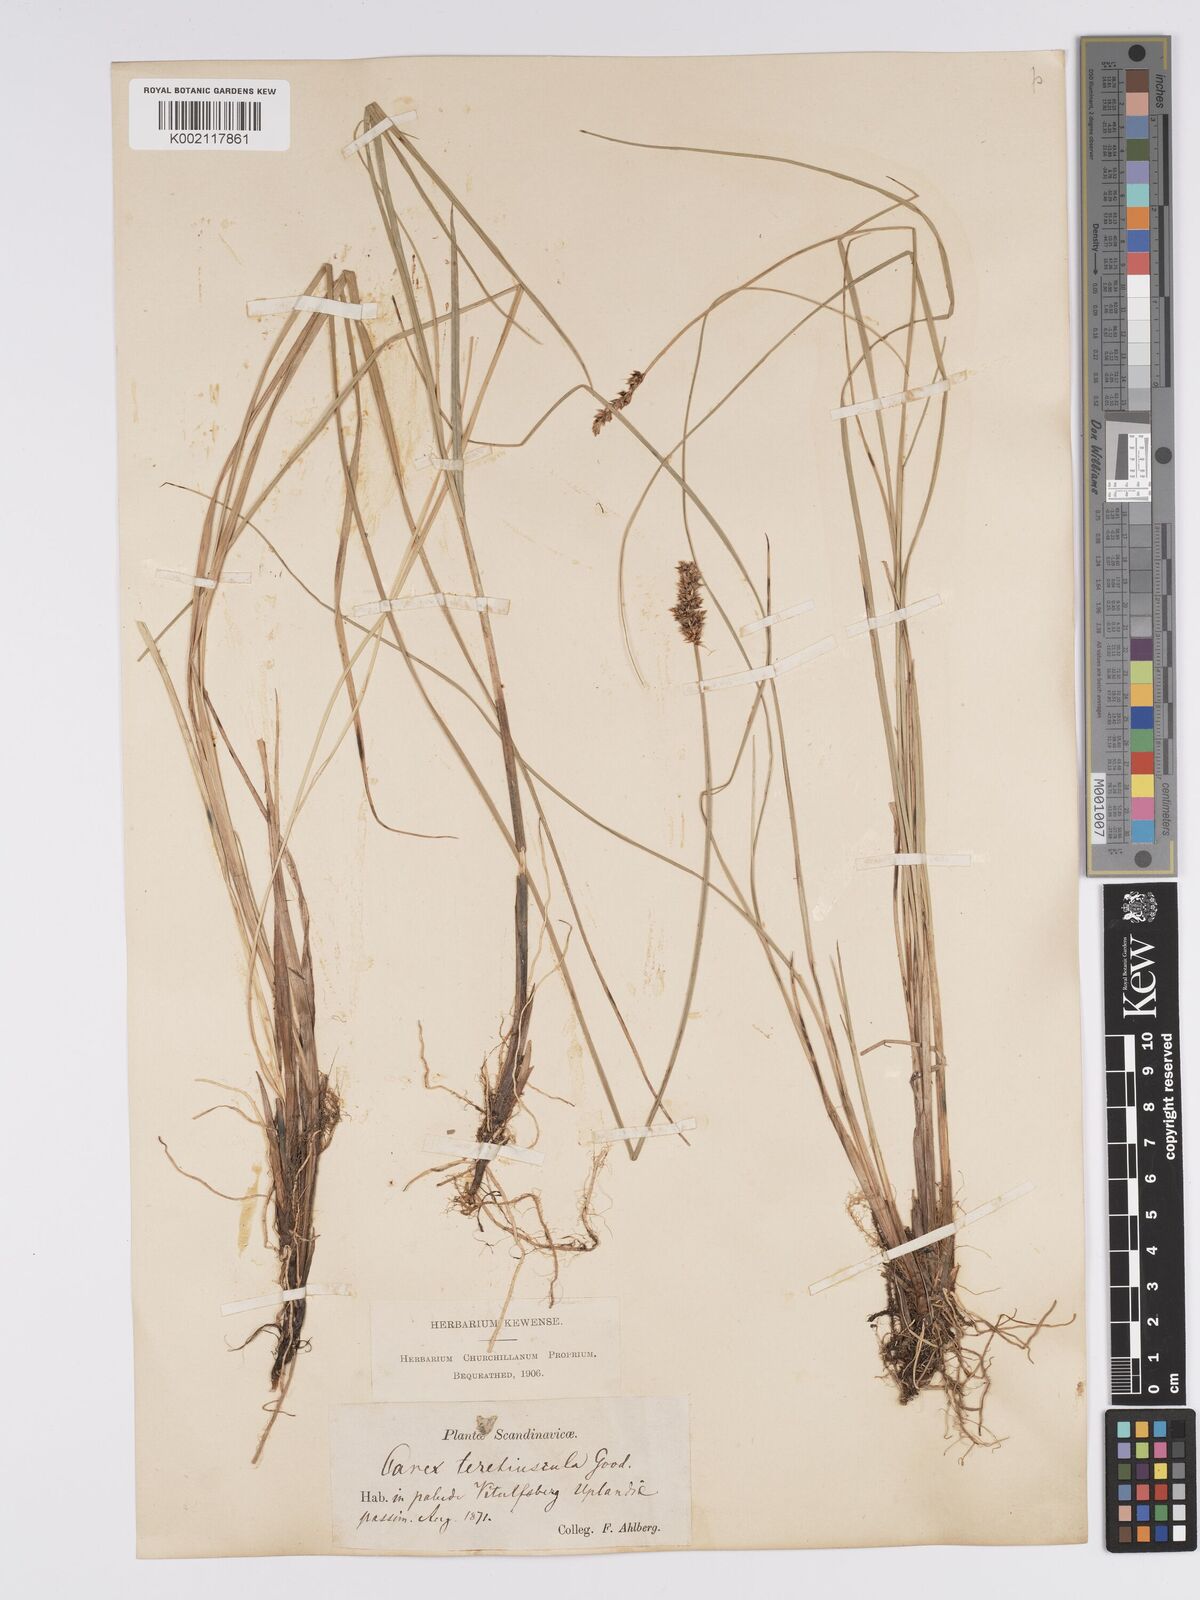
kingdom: Plantae
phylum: Tracheophyta
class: Liliopsida
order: Poales
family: Cyperaceae
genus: Carex
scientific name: Carex diandra
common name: Lesser tussock-sedge
